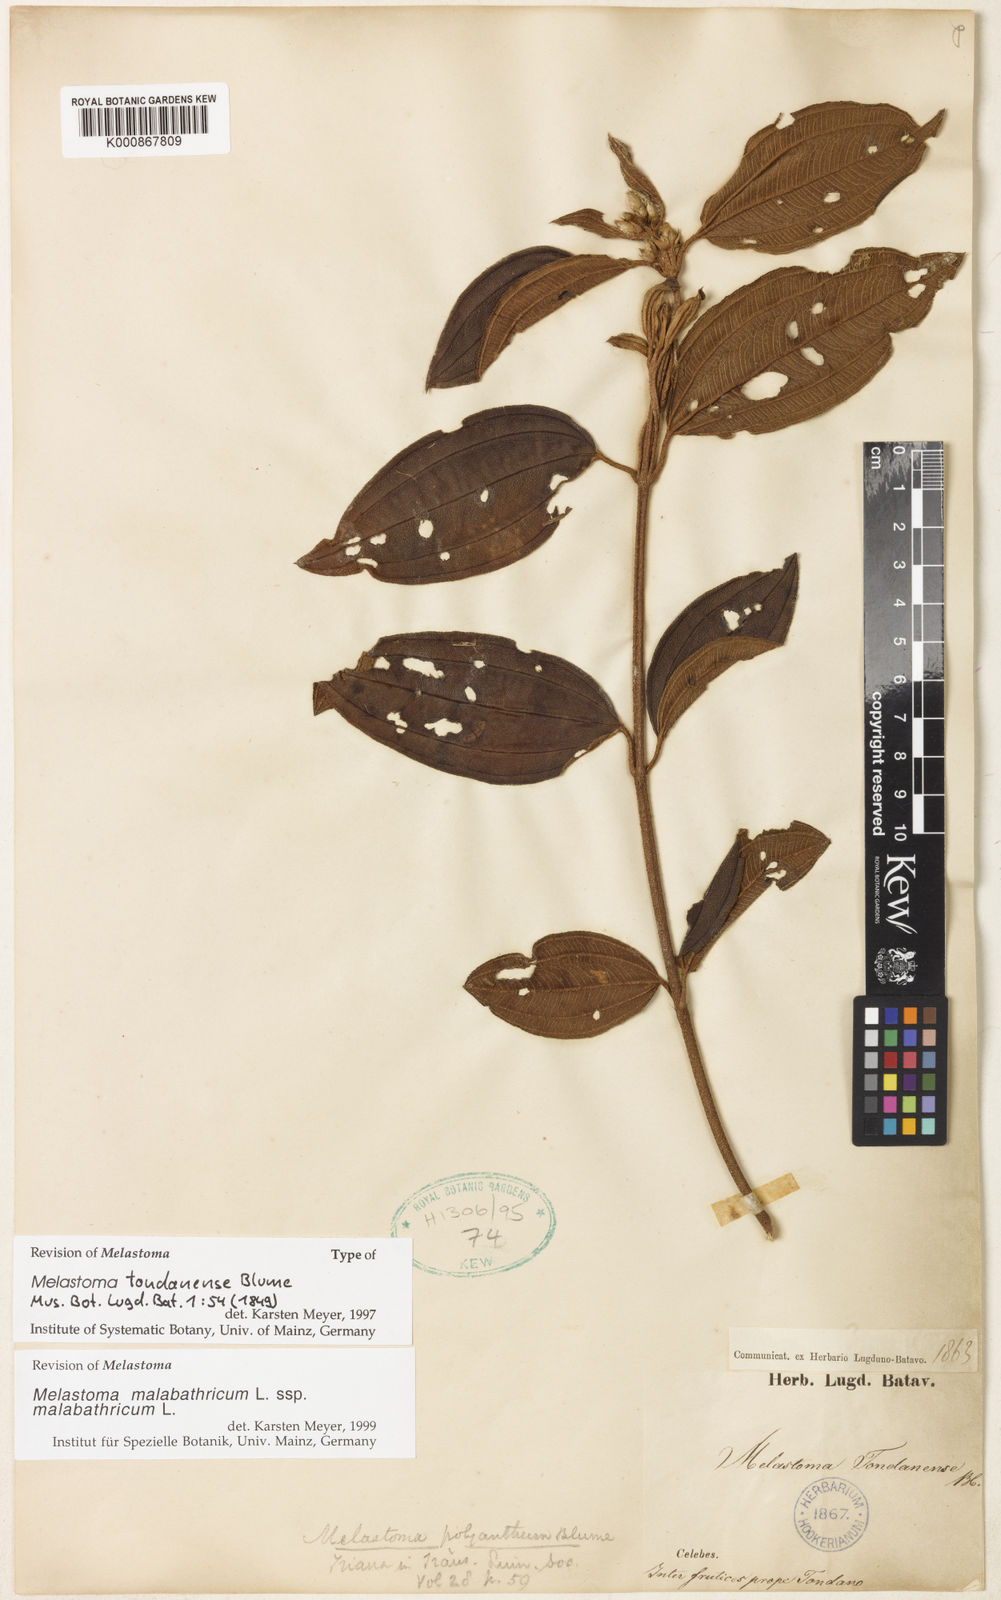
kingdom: Plantae
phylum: Tracheophyta
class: Magnoliopsida
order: Myrtales
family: Melastomataceae
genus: Melastoma
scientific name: Melastoma malabathricum
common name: Indian-rhododendron
